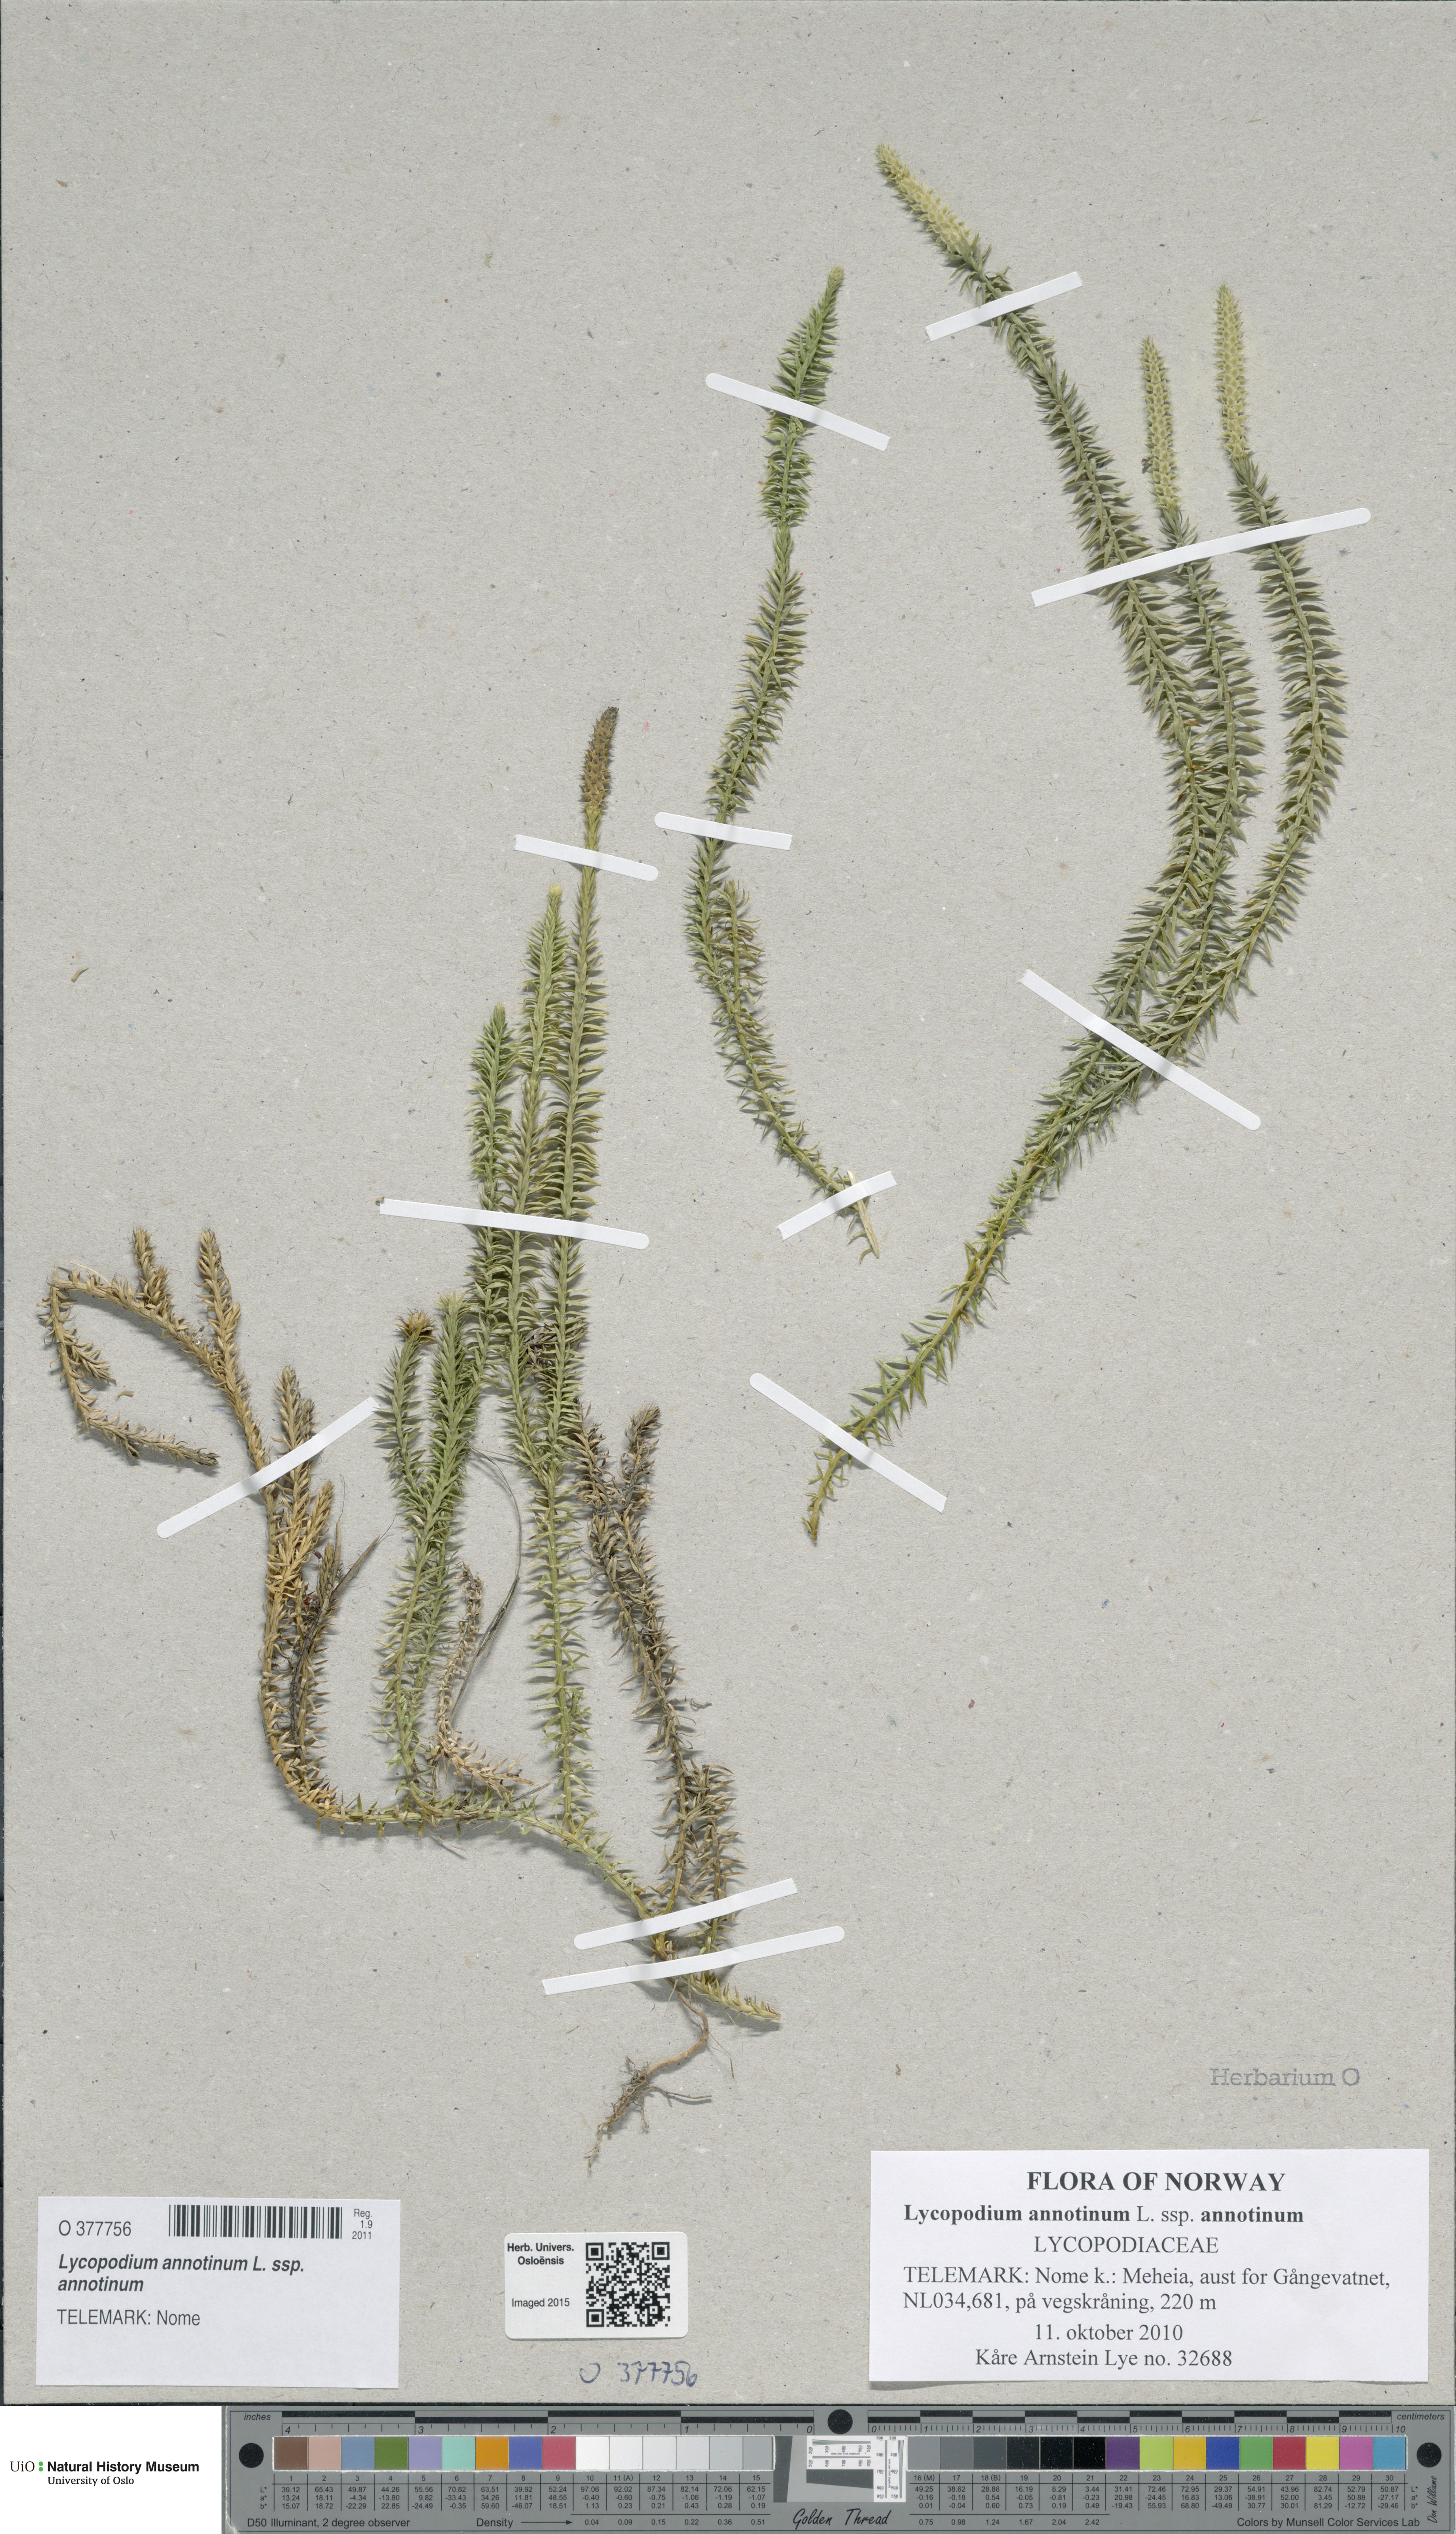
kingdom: Plantae
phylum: Tracheophyta
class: Lycopodiopsida
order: Lycopodiales
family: Lycopodiaceae
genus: Spinulum
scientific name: Spinulum annotinum
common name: Interrupted club-moss
